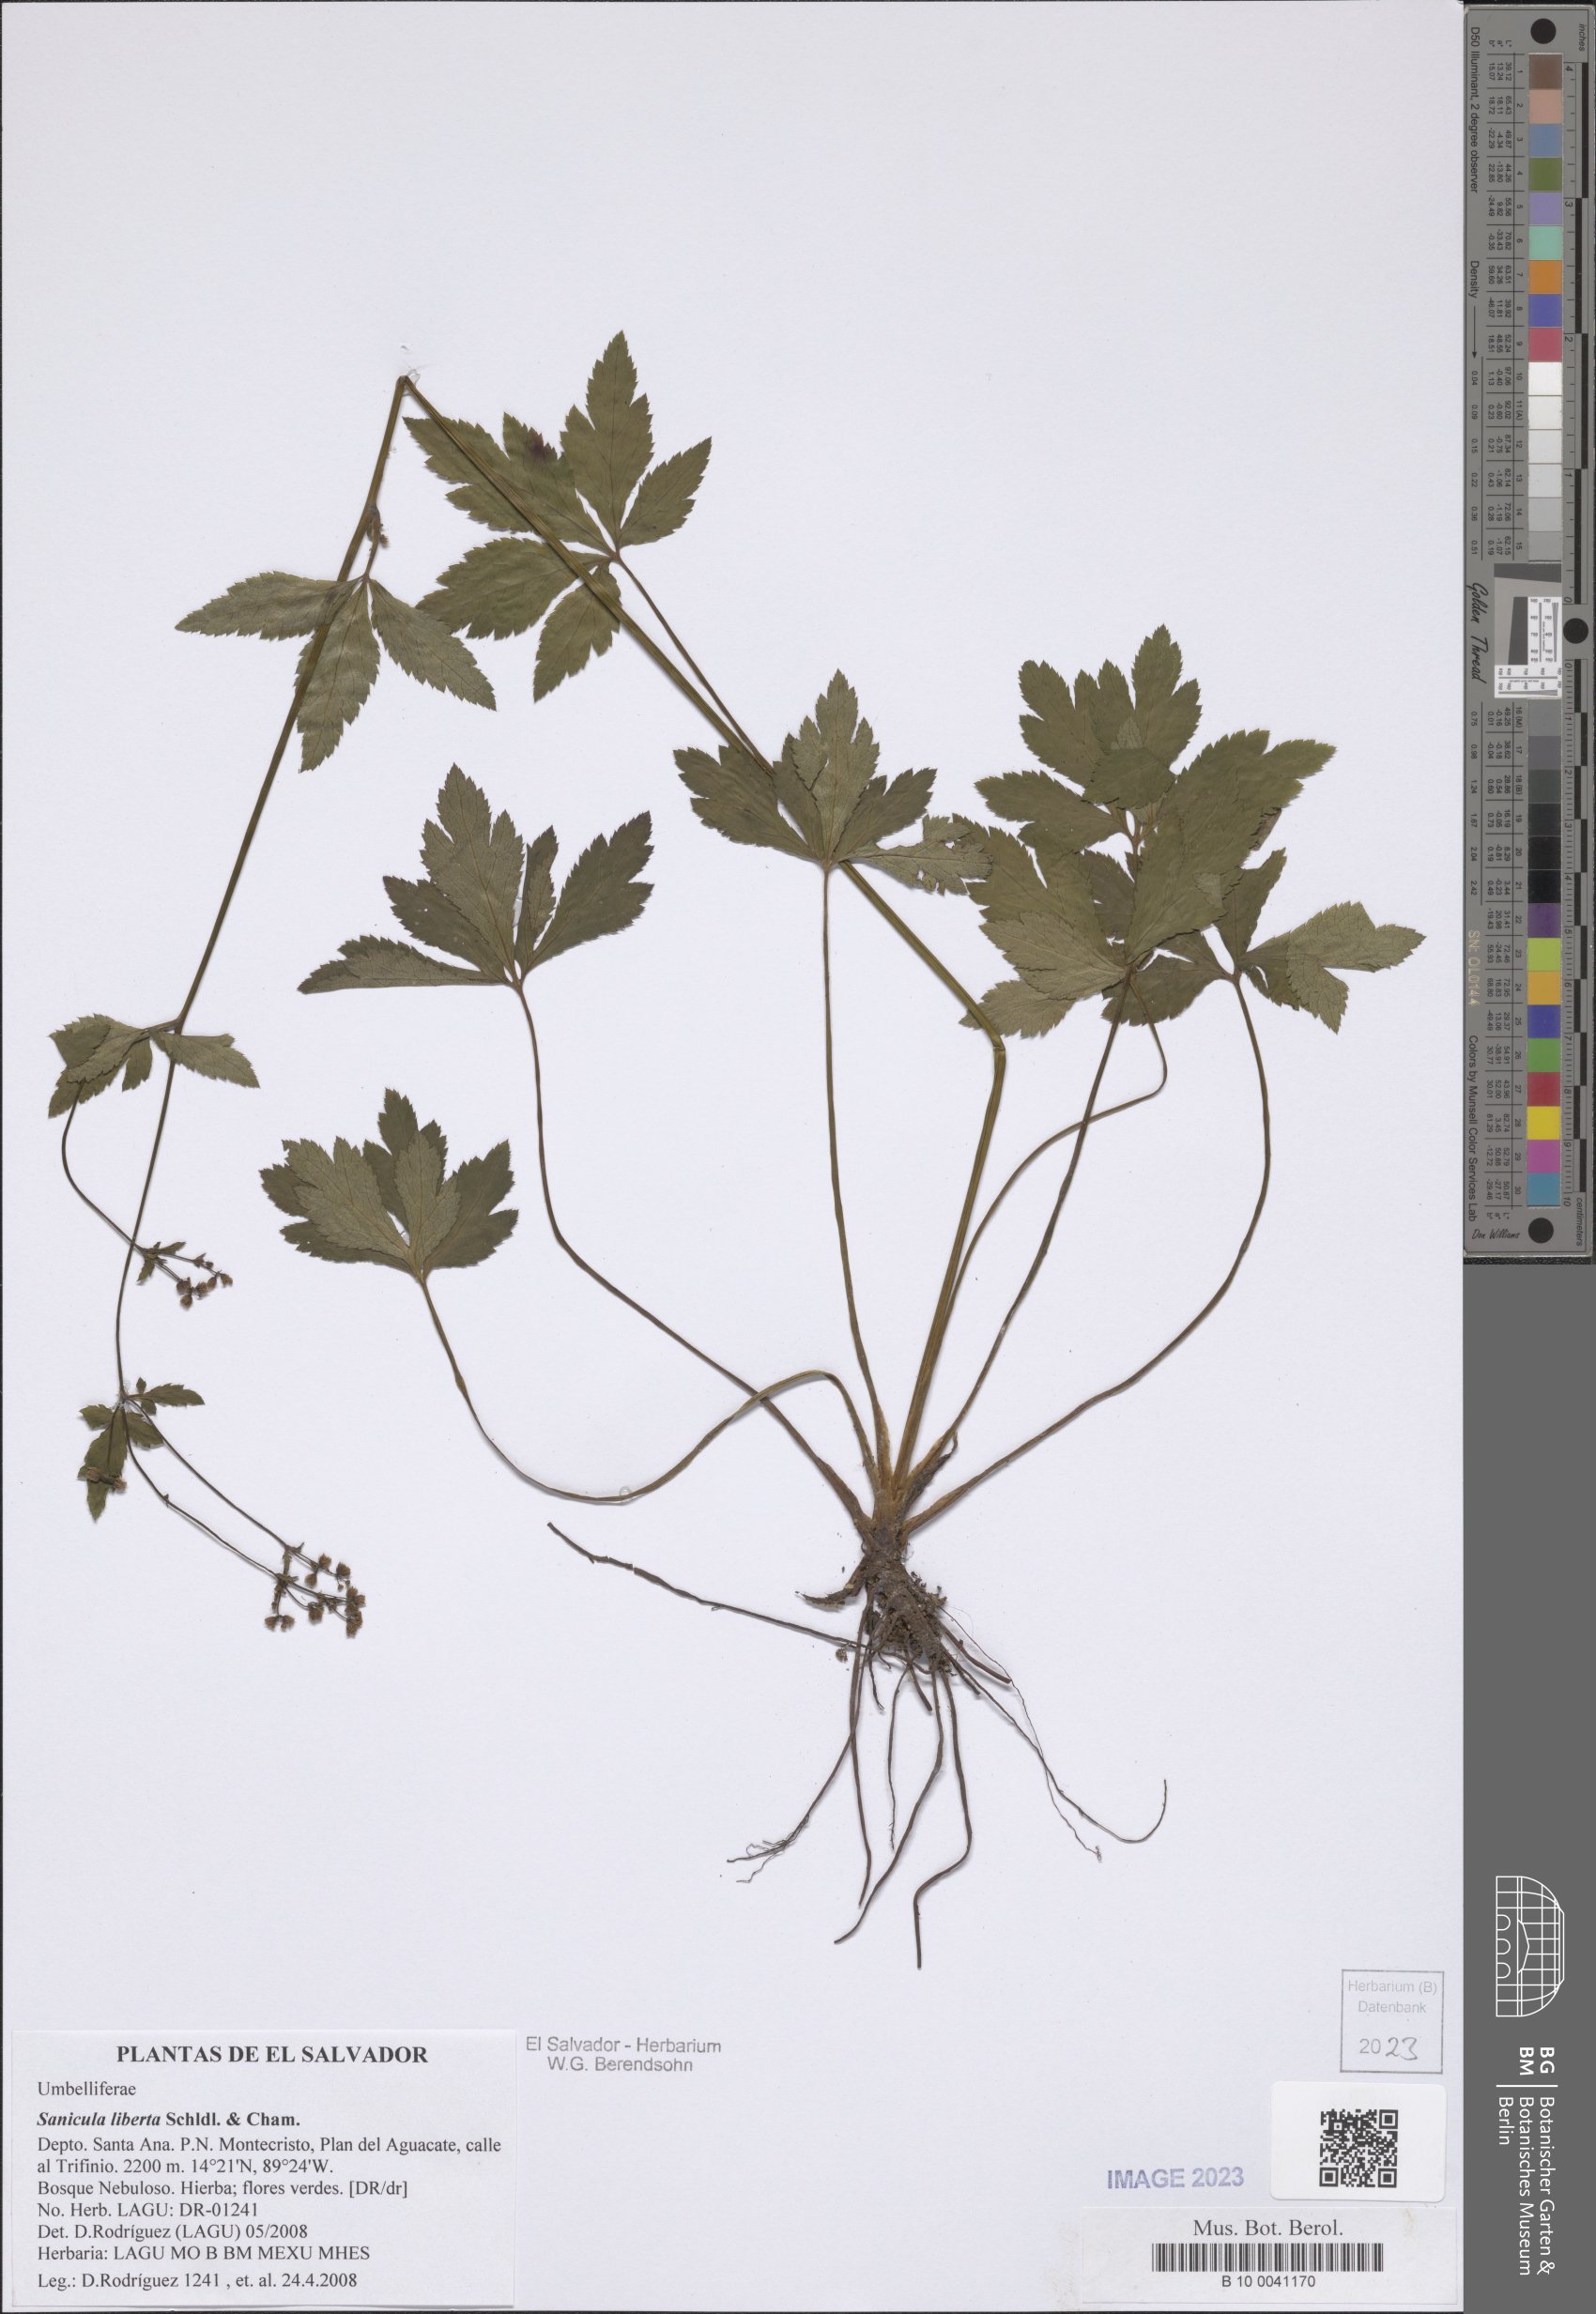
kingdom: Plantae
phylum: Tracheophyta
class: Magnoliopsida
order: Apiales
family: Apiaceae
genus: Sanicula
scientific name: Sanicula liberta
